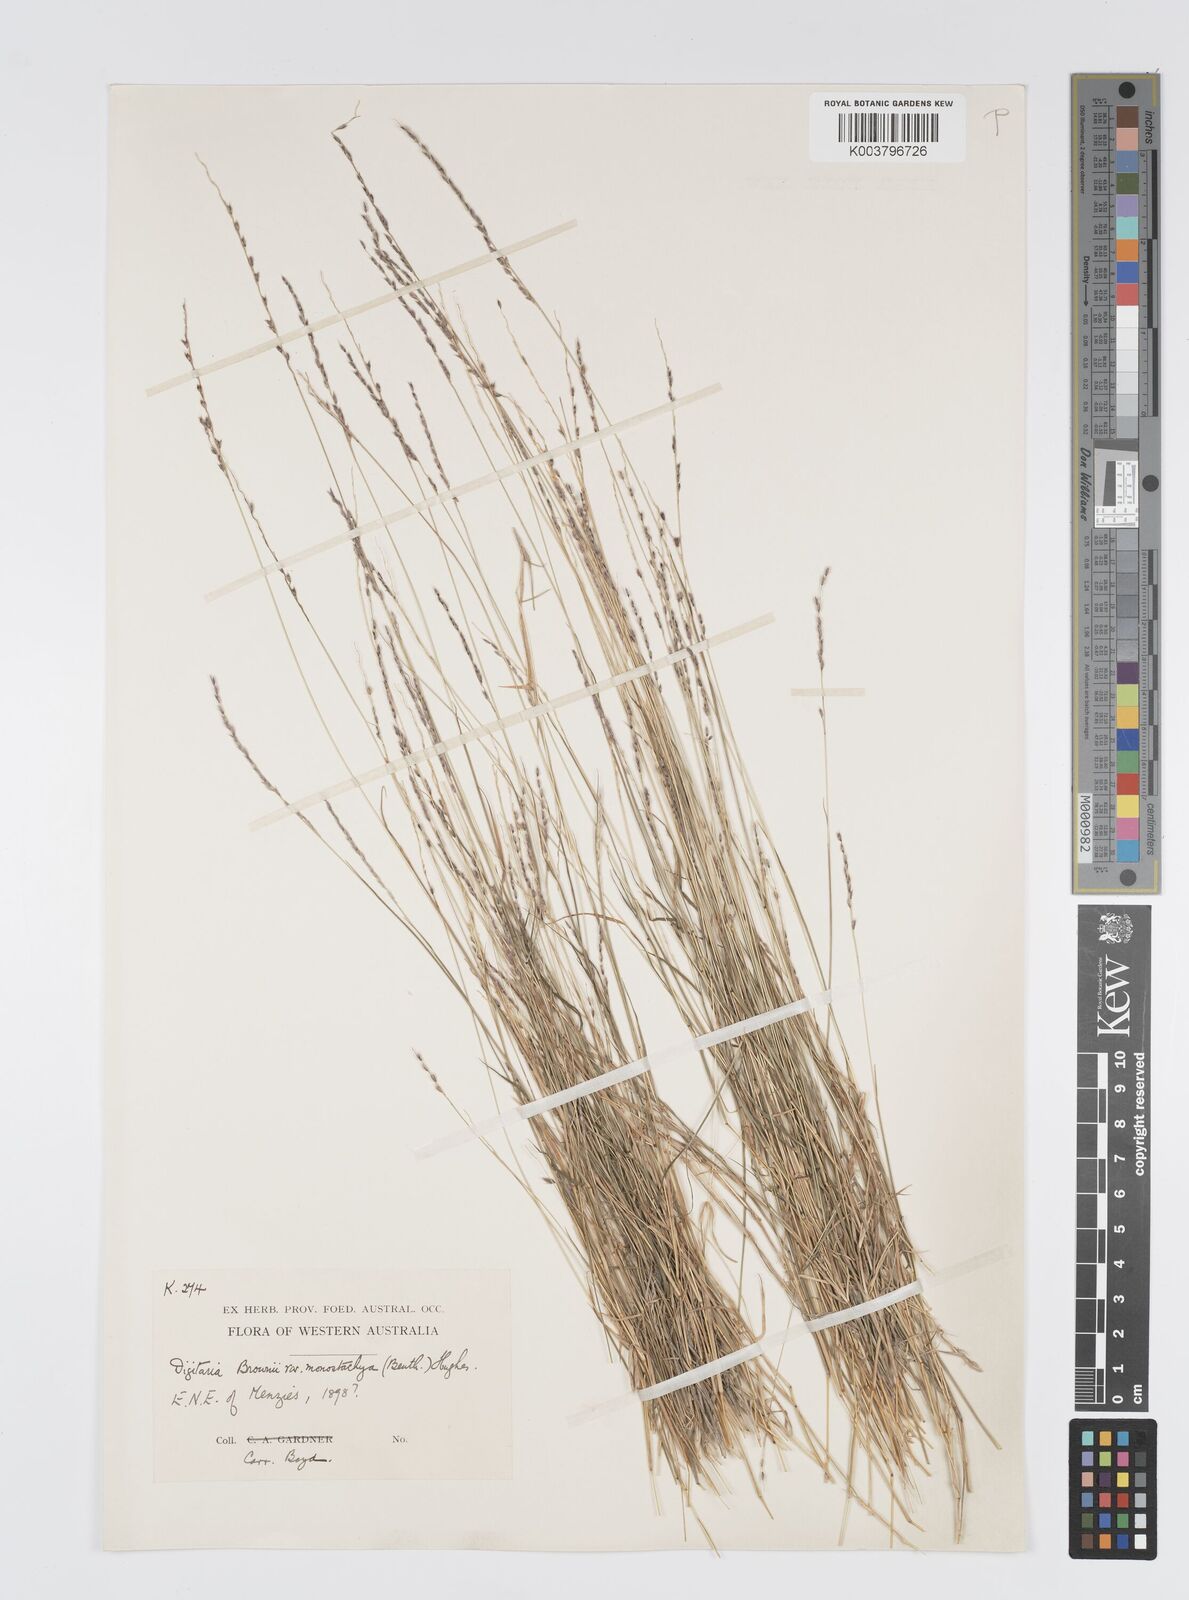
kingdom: Plantae
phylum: Tracheophyta
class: Liliopsida
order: Poales
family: Poaceae
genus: Digitaria
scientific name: Digitaria brownii
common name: Cotton grass
